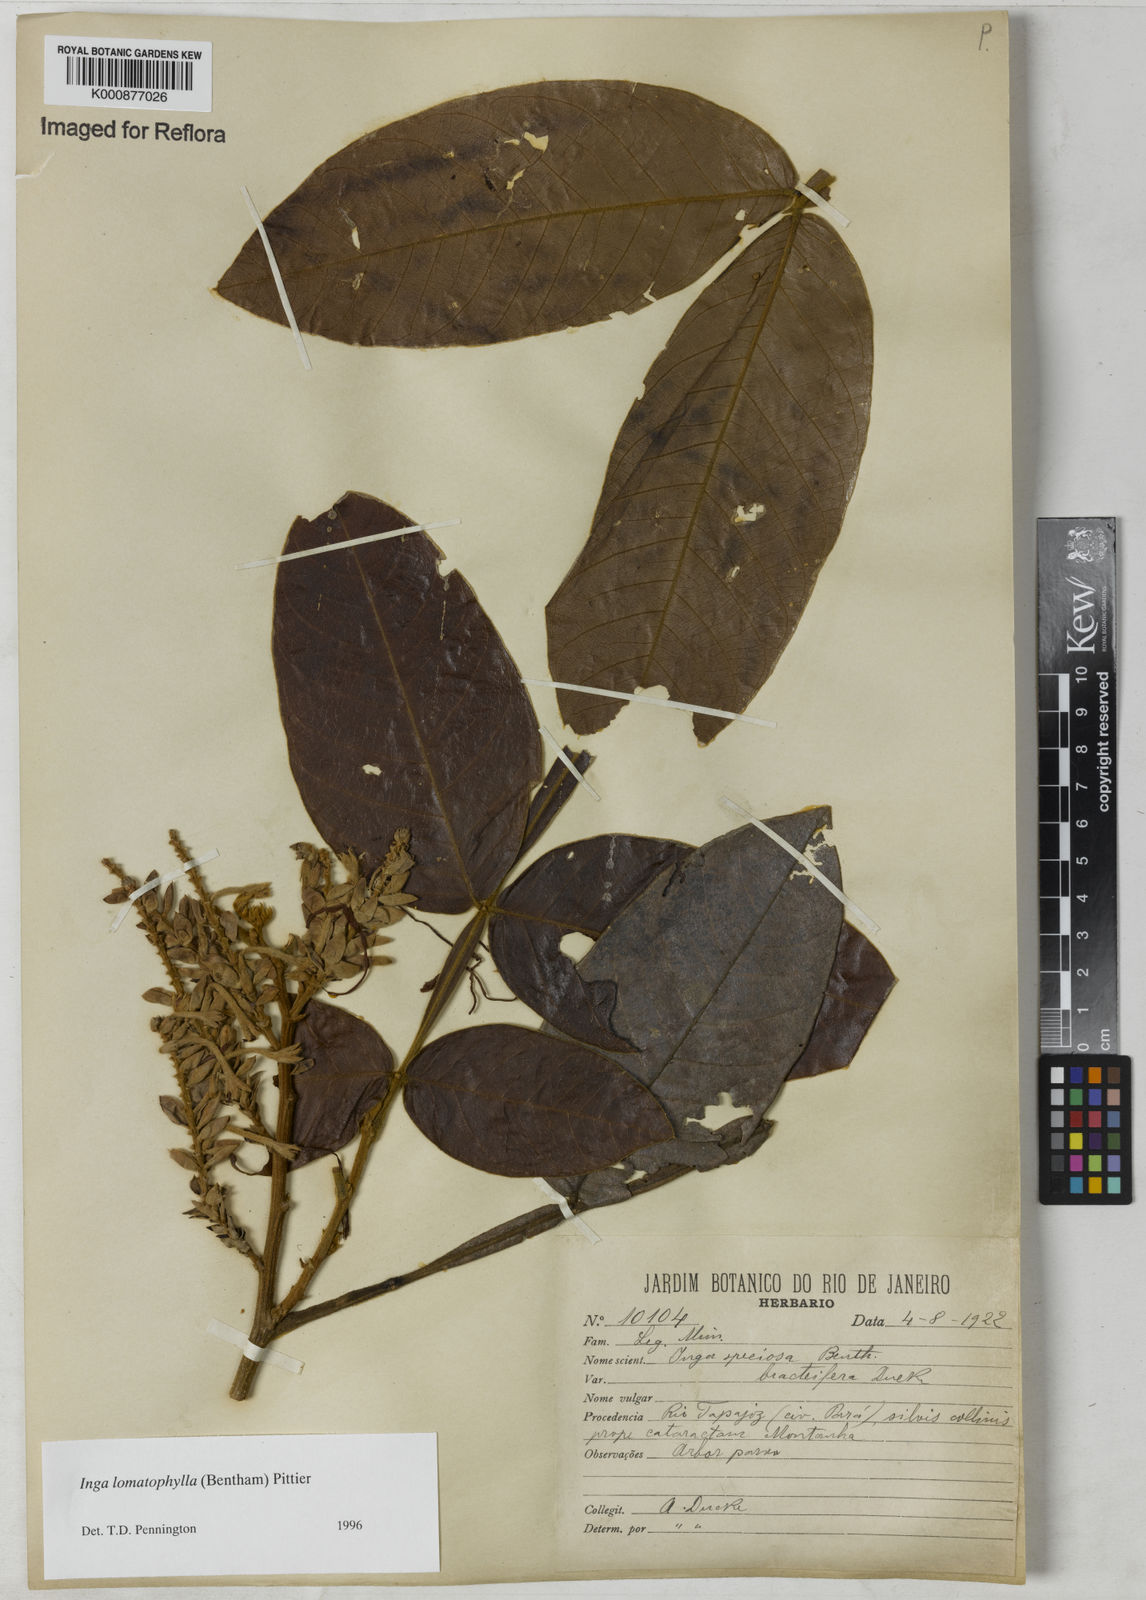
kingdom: Plantae
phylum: Tracheophyta
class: Magnoliopsida
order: Fabales
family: Fabaceae
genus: Inga
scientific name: Inga lomatophylla
